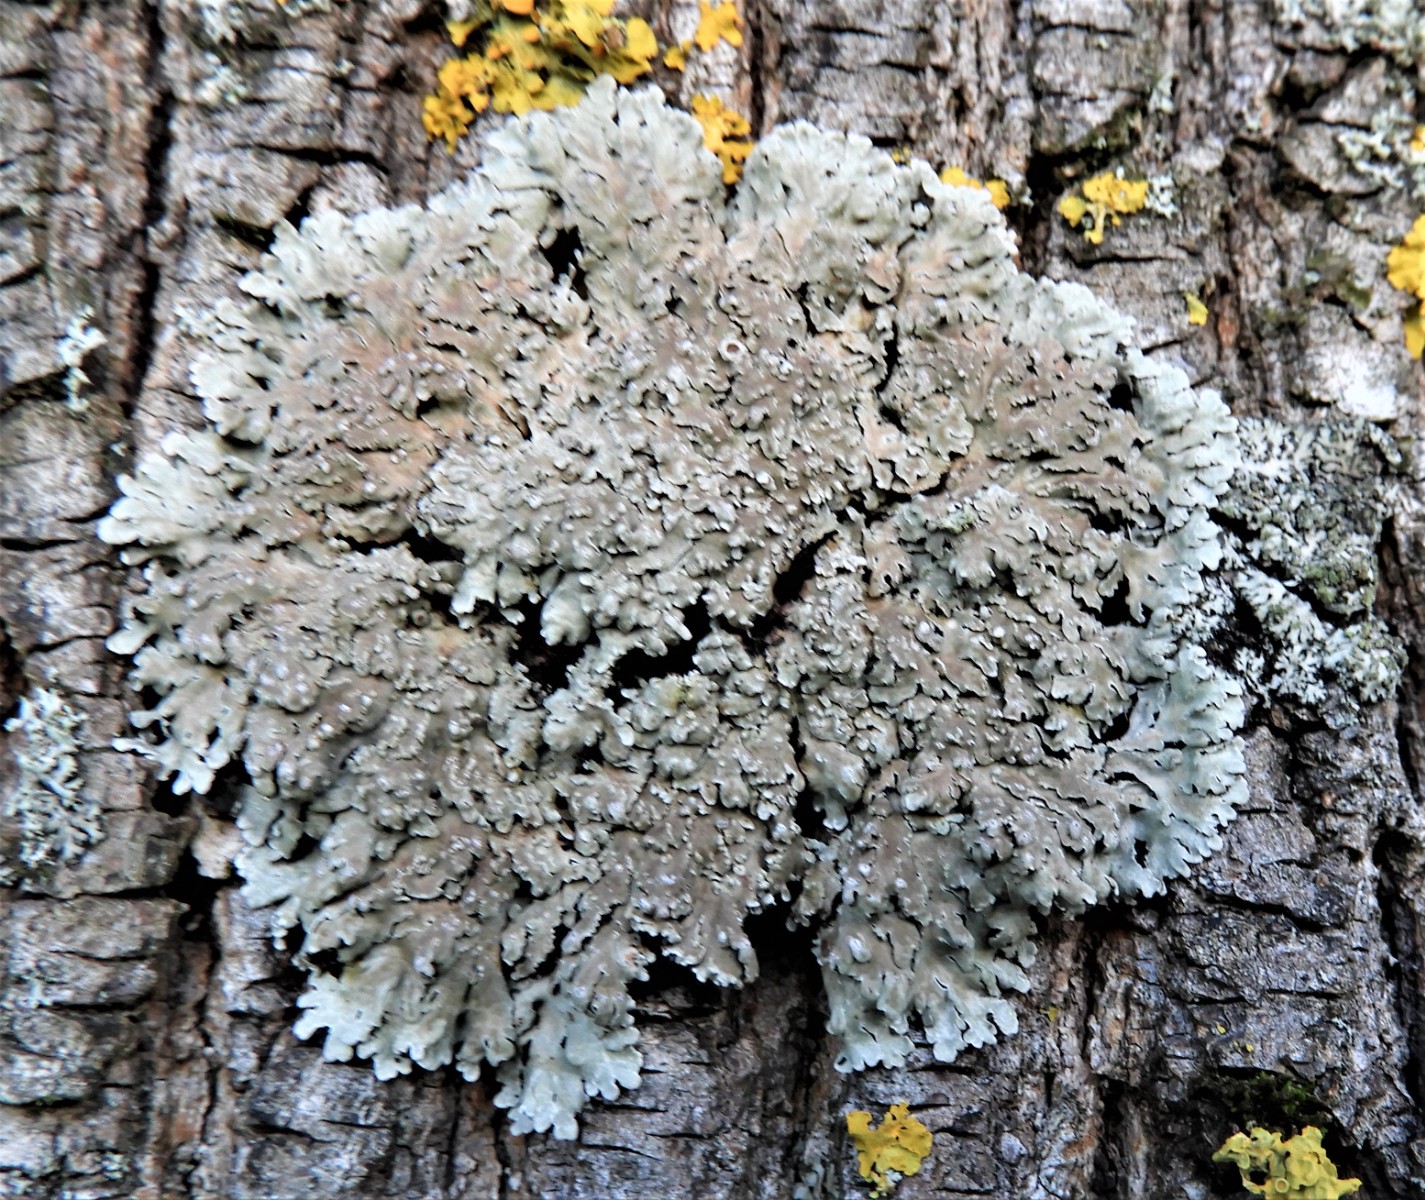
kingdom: Fungi
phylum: Ascomycota
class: Lecanoromycetes
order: Caliciales
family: Physciaceae
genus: Physconia
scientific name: Physconia distorta
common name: pudret dugrosetlav
